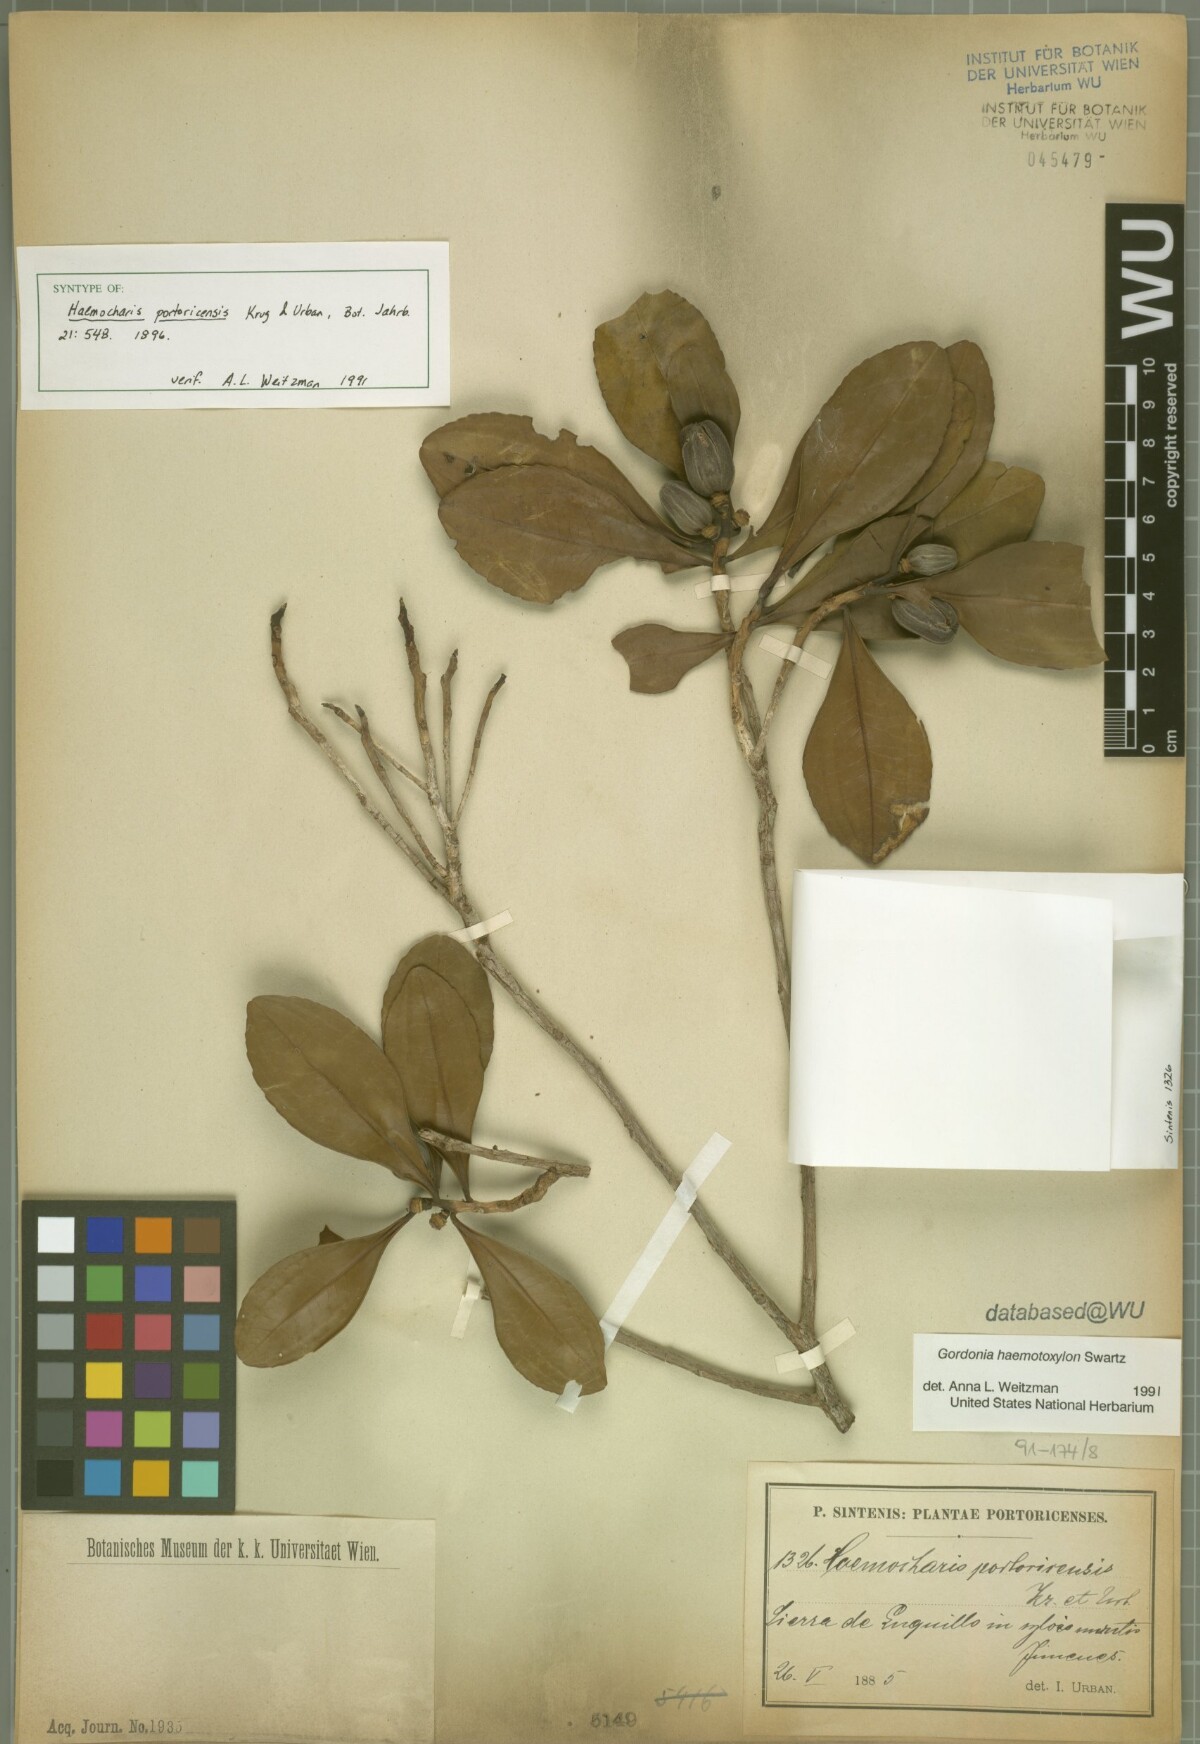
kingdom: Plantae
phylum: Tracheophyta
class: Magnoliopsida
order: Ericales
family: Theaceae
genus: Gordonia
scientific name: Gordonia portoricensis
